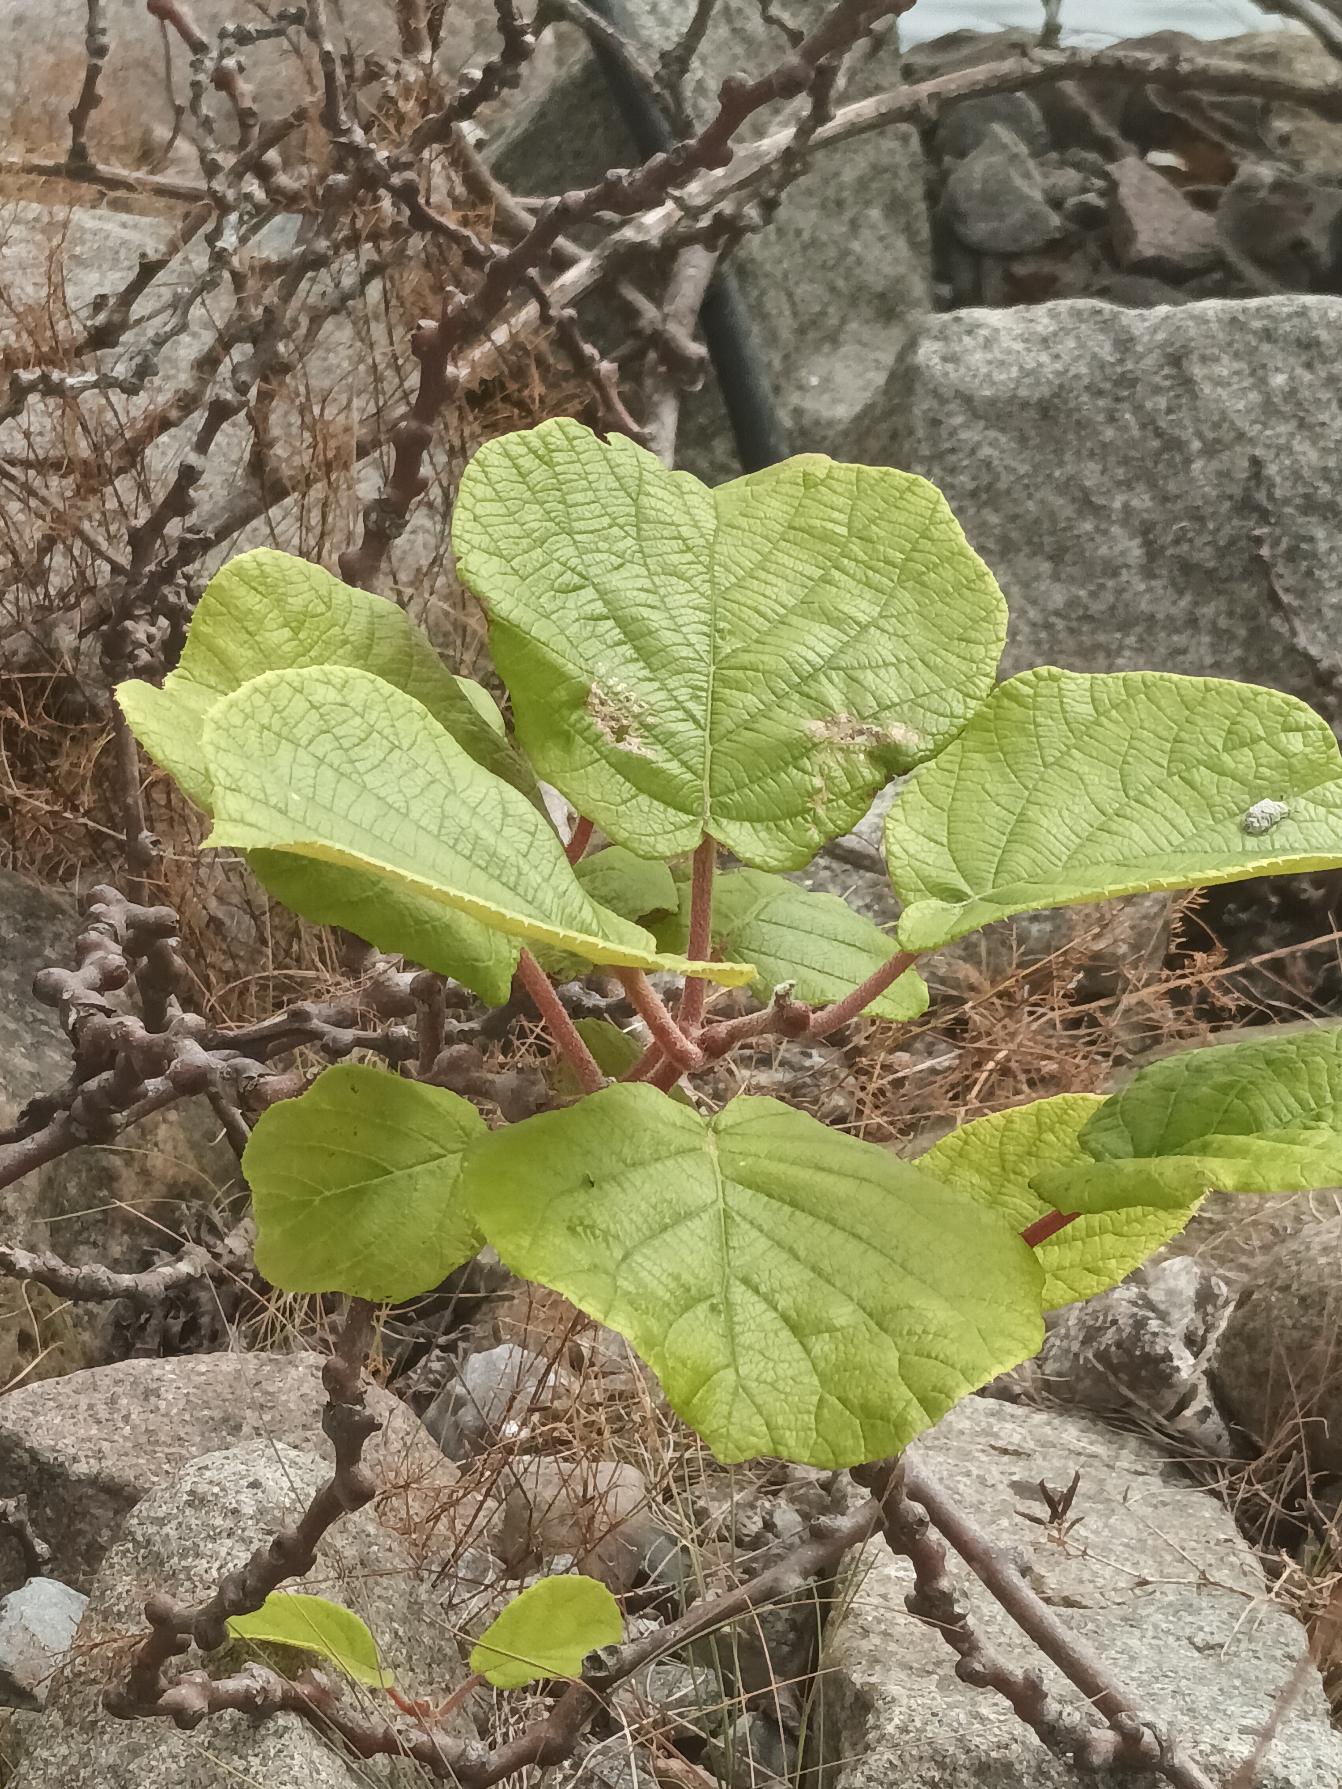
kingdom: Plantae
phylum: Tracheophyta
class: Magnoliopsida
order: Ericales
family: Actinidiaceae
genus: Actinidia
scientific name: Actinidia chinensis
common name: Kiwi
